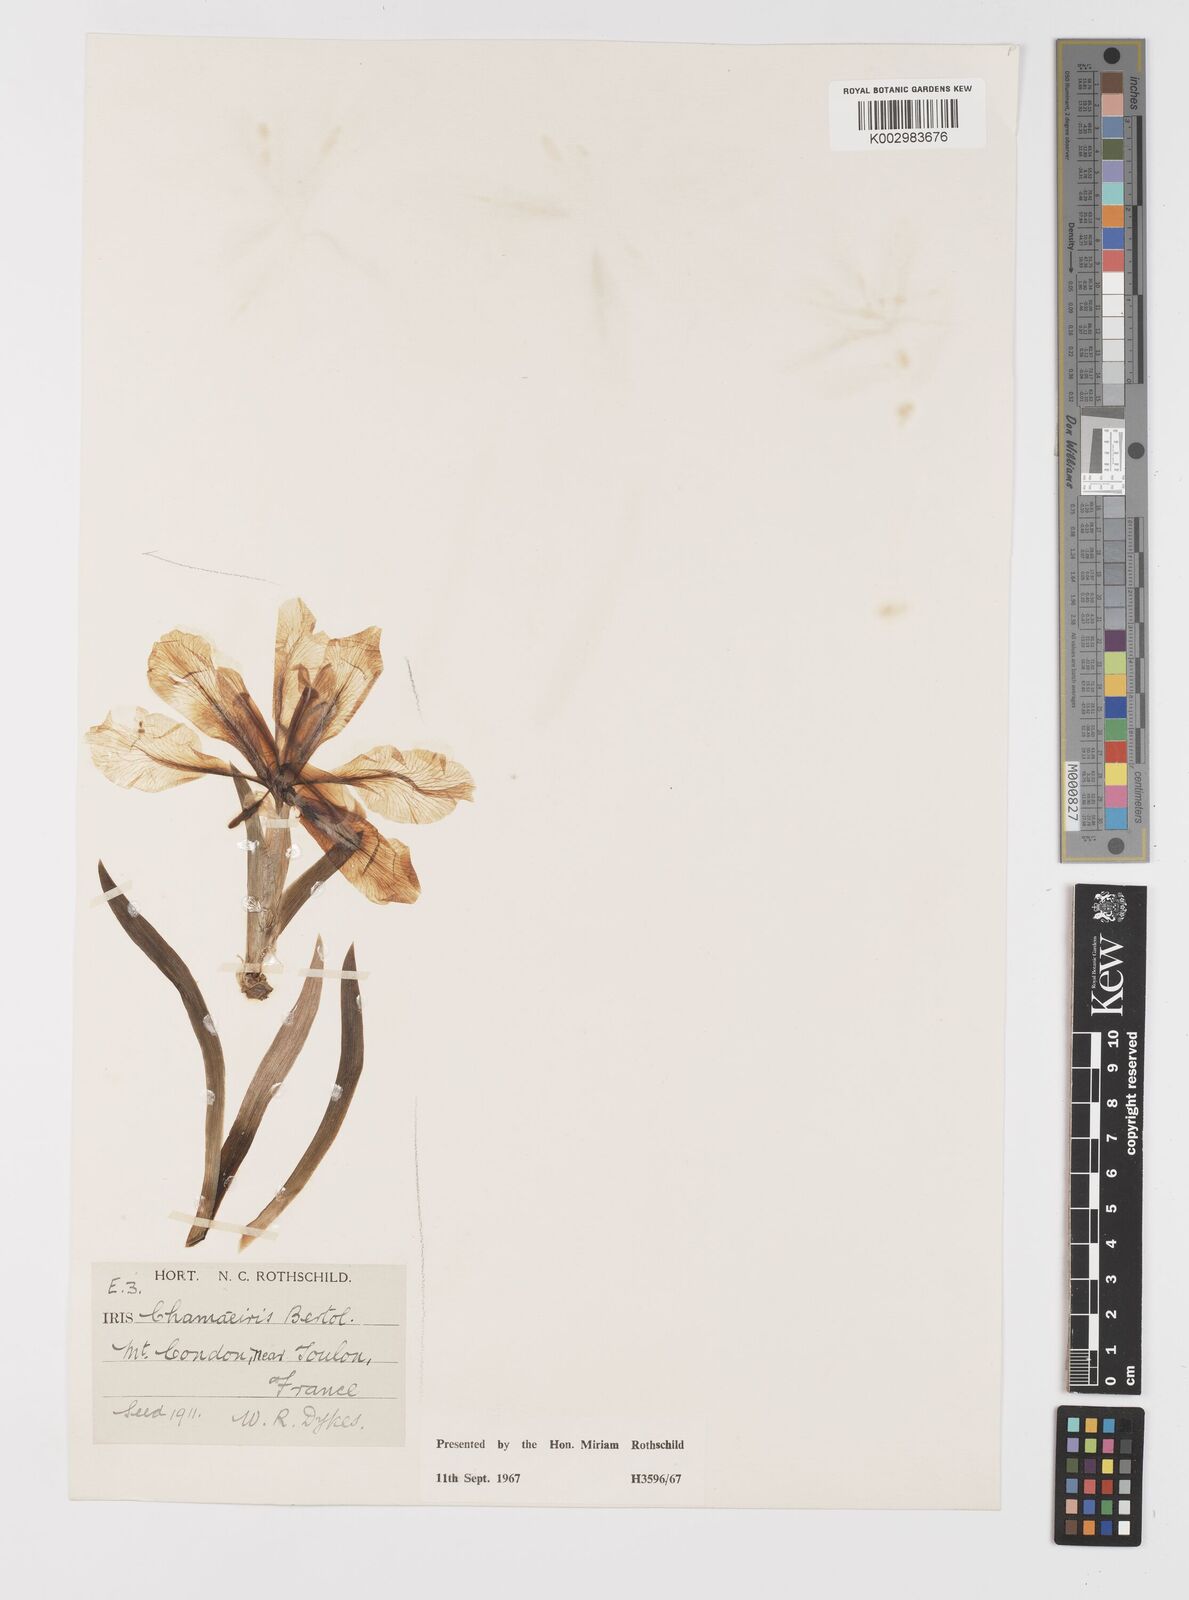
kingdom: Plantae
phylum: Tracheophyta
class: Liliopsida
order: Asparagales
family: Iridaceae
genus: Iris
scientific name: Iris lutescens
